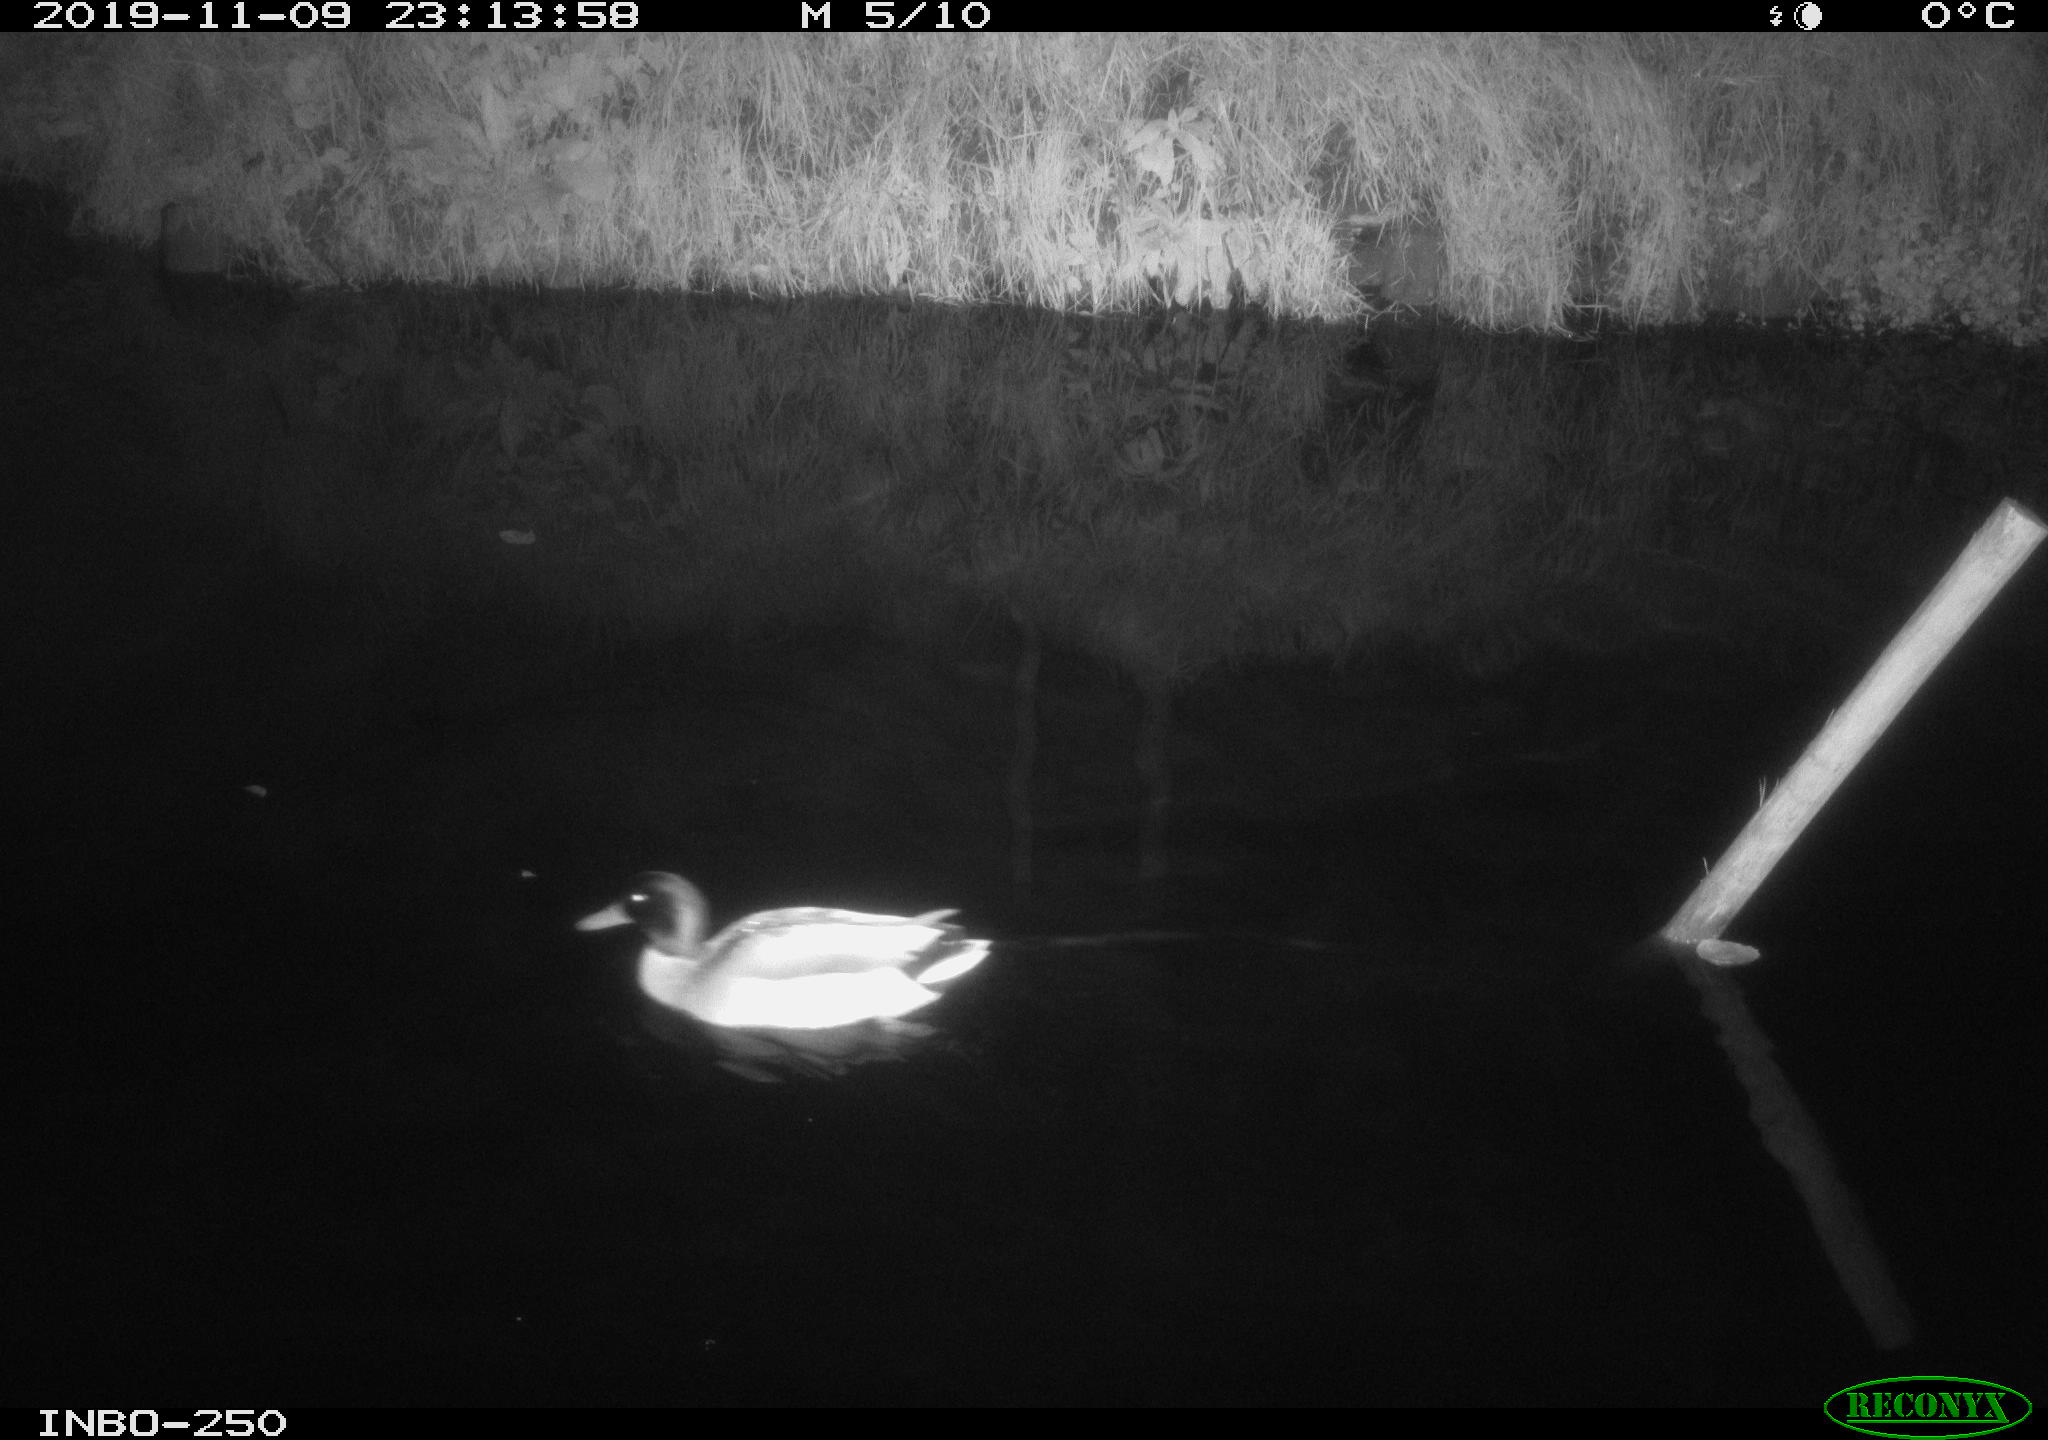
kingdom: Animalia
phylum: Chordata
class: Aves
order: Anseriformes
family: Anatidae
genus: Anas
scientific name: Anas platyrhynchos
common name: Mallard
